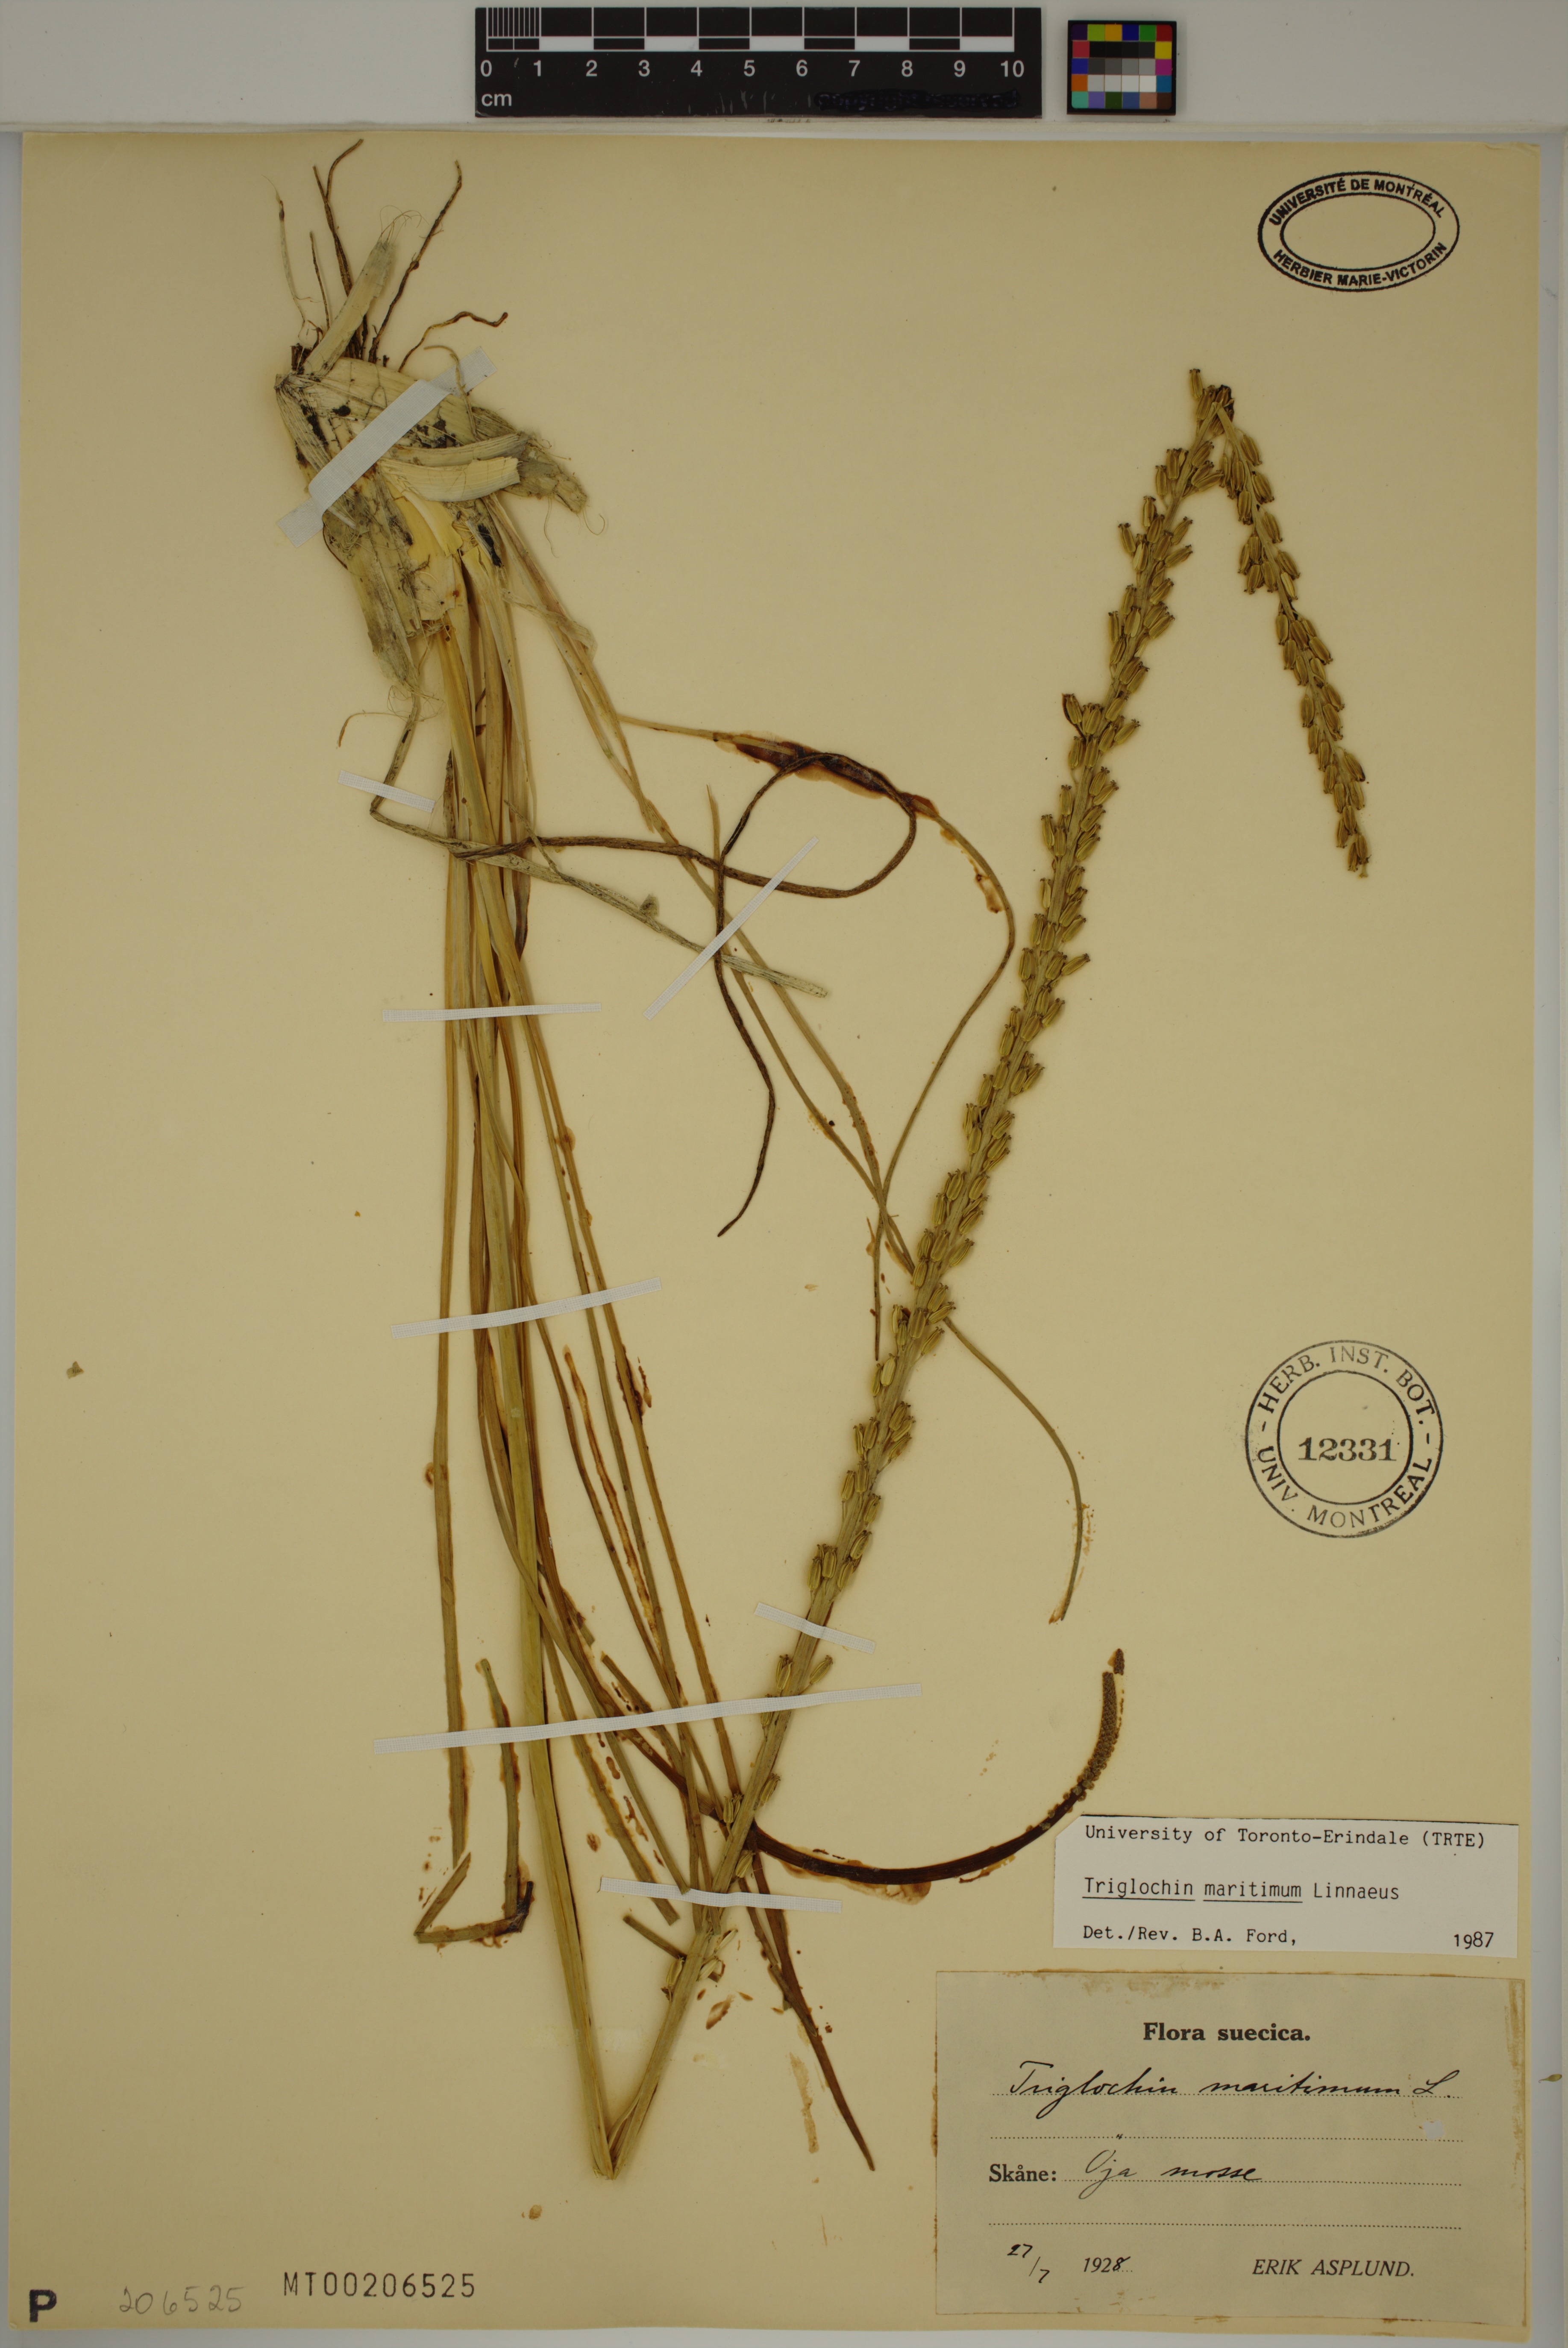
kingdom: Plantae
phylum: Tracheophyta
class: Liliopsida
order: Alismatales
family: Juncaginaceae
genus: Triglochin
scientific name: Triglochin maritima
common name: Sea arrowgrass
